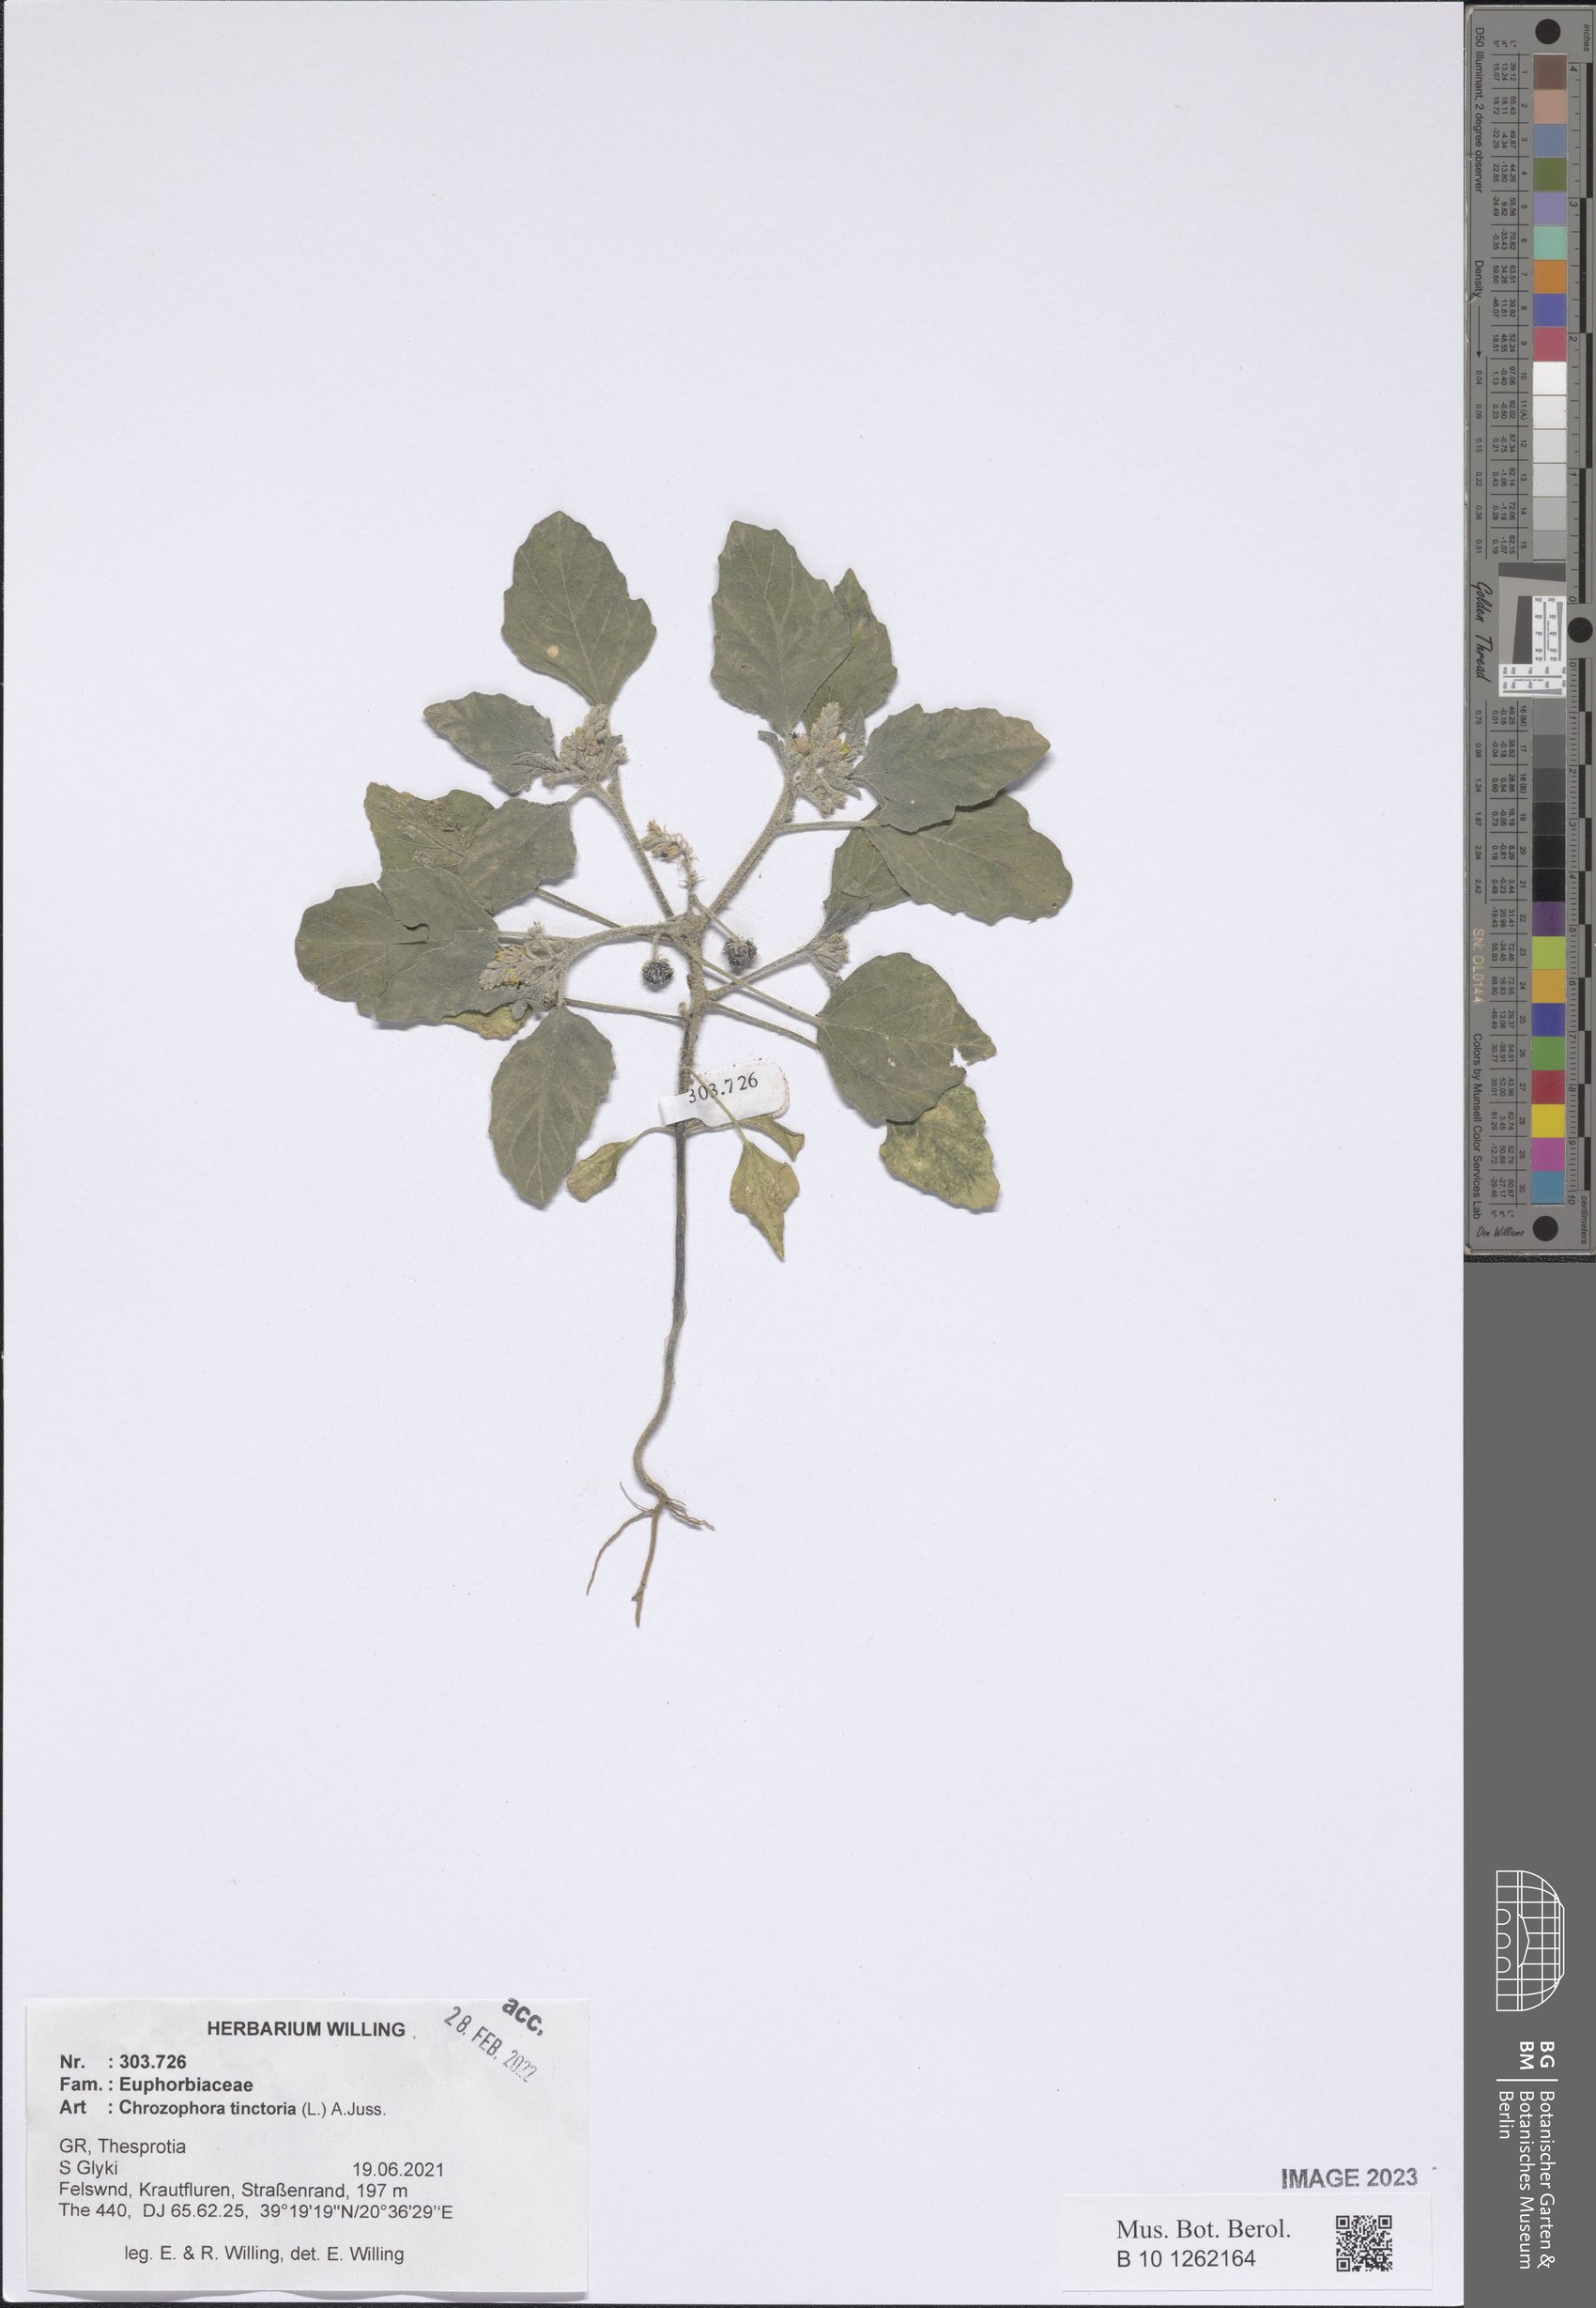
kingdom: Plantae
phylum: Tracheophyta
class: Magnoliopsida
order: Malpighiales
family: Euphorbiaceae
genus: Chrozophora
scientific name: Chrozophora tinctoria
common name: Dyer's litmus
